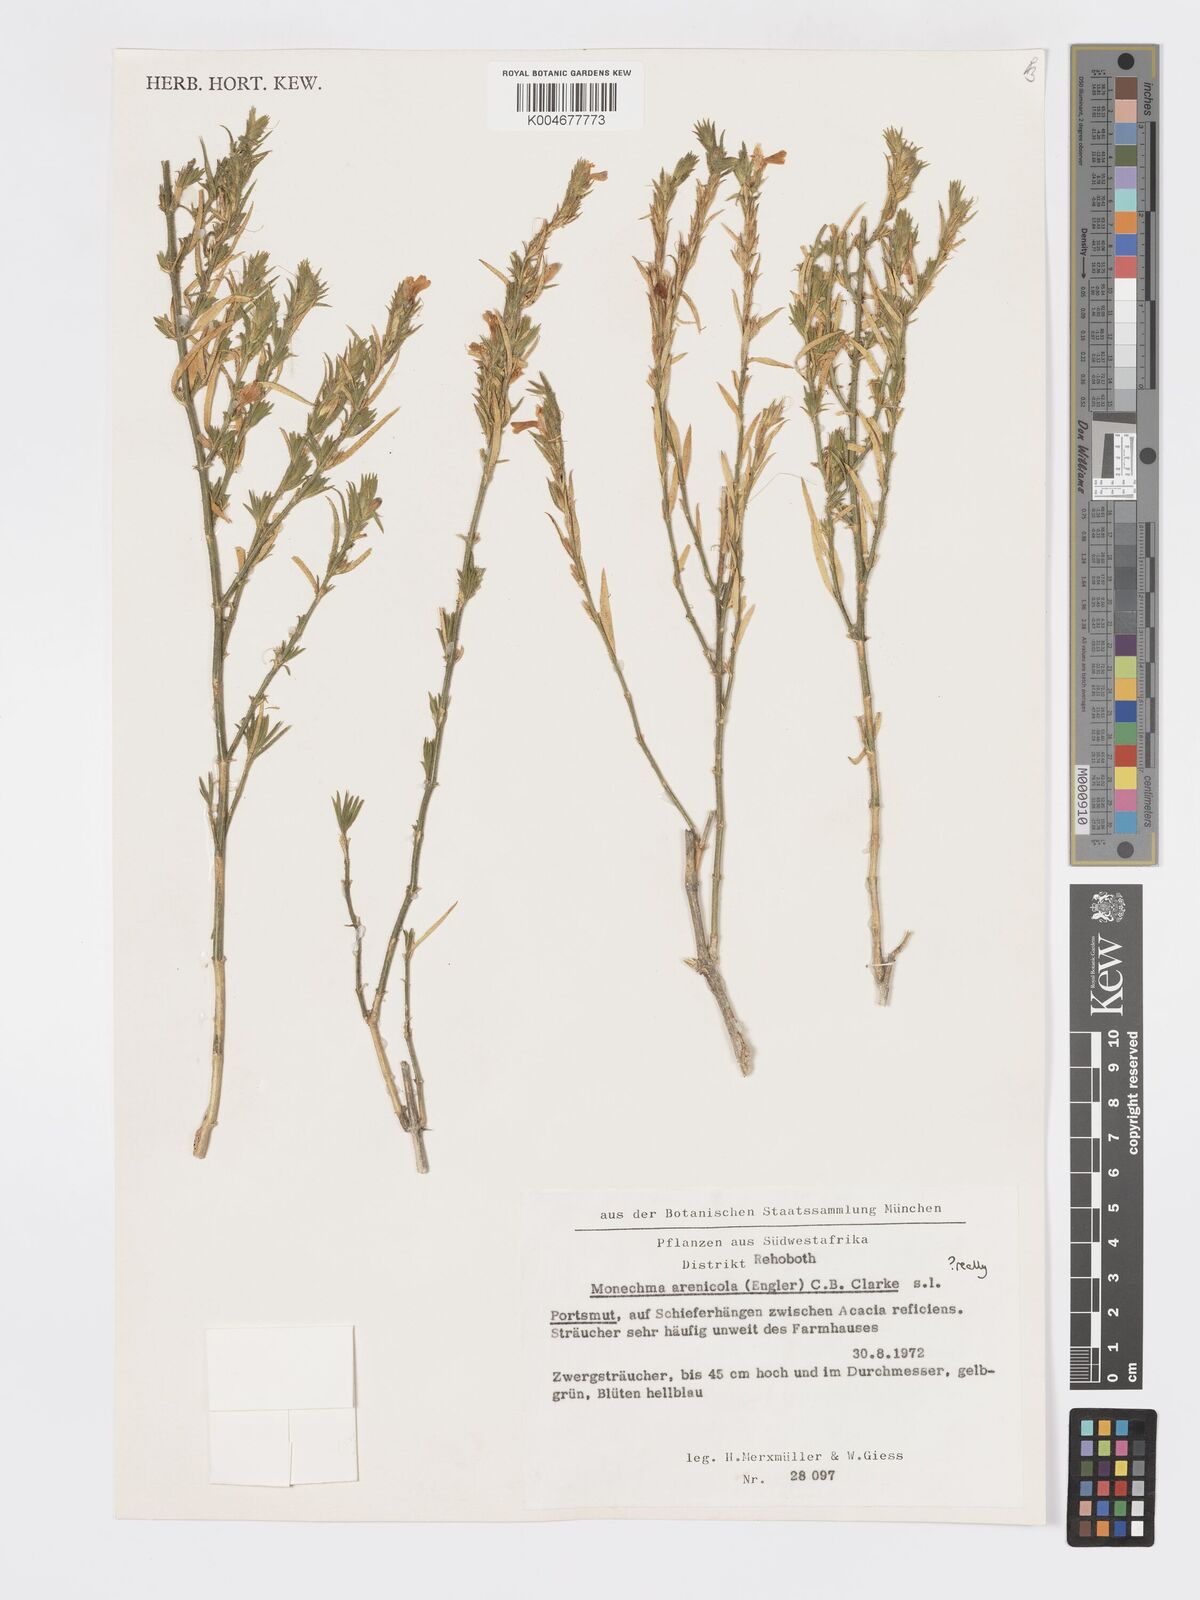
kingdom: Plantae
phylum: Tracheophyta
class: Magnoliopsida
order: Lamiales
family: Acanthaceae
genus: Pogonospermum
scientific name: Pogonospermum ciliare
